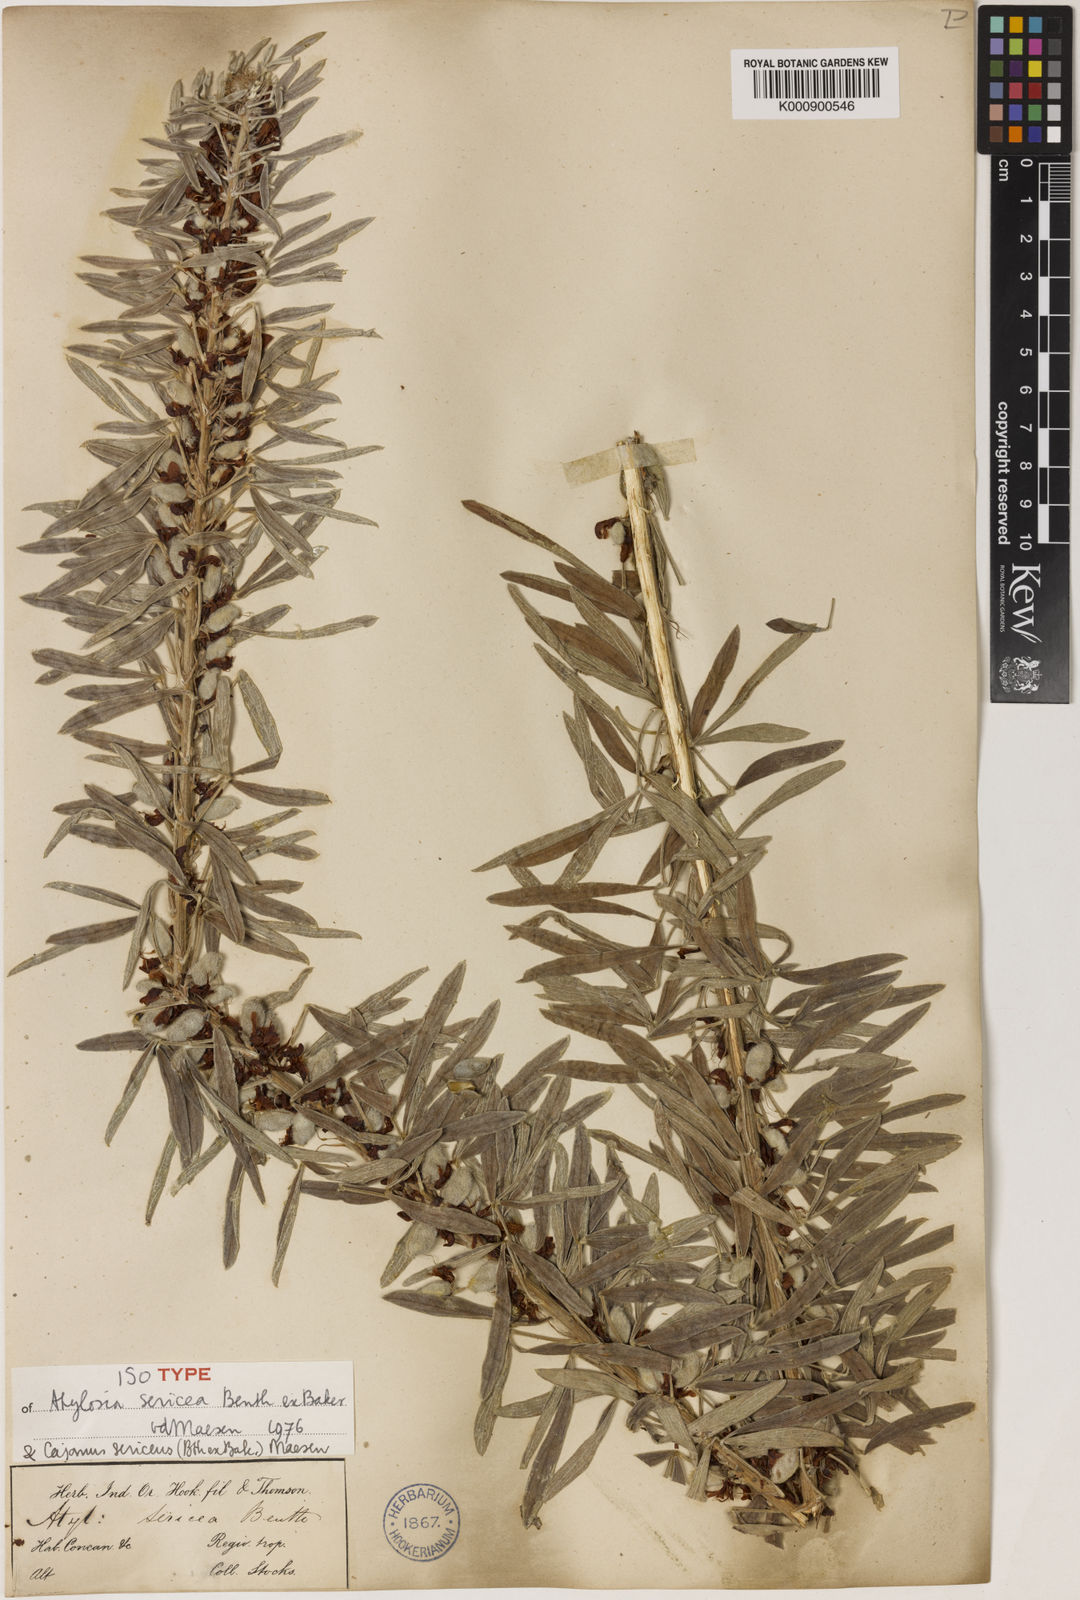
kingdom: Plantae
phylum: Tracheophyta
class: Magnoliopsida
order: Fabales
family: Fabaceae
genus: Cajanus
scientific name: Cajanus sericeus
